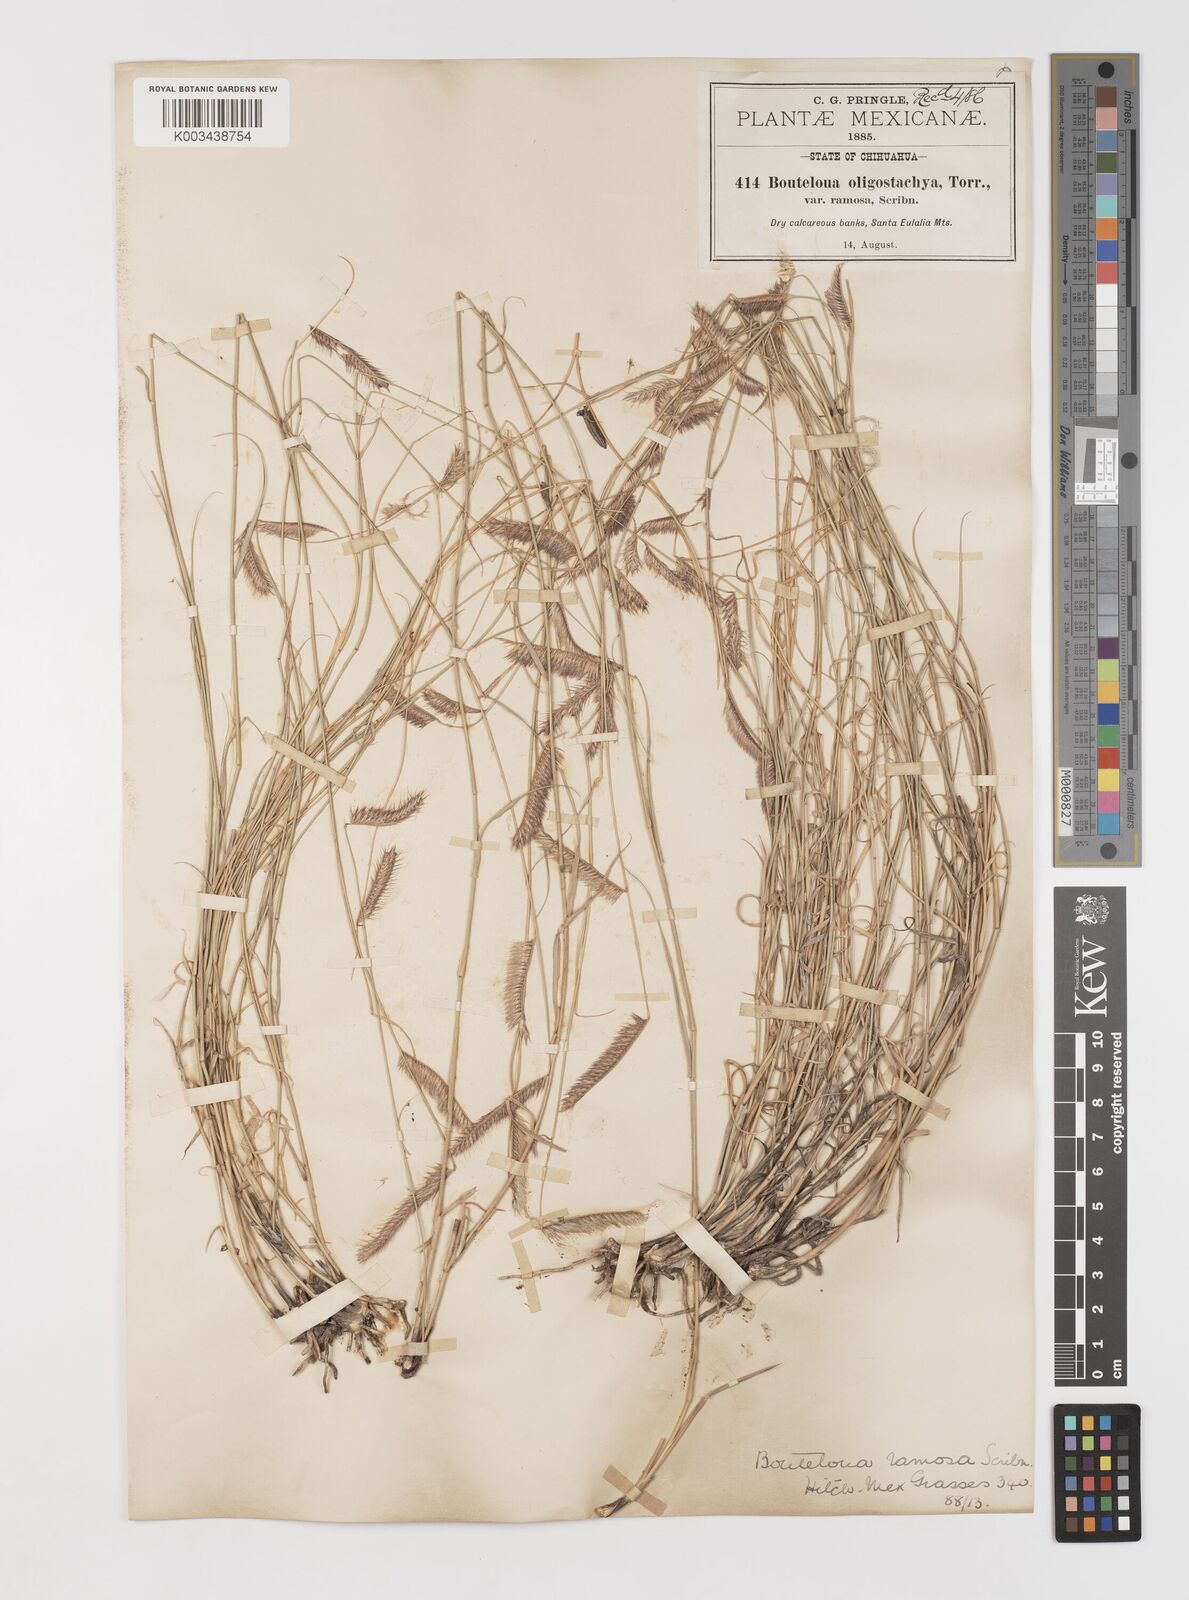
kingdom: Plantae
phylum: Tracheophyta
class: Liliopsida
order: Poales
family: Poaceae
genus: Bouteloua
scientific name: Bouteloua
